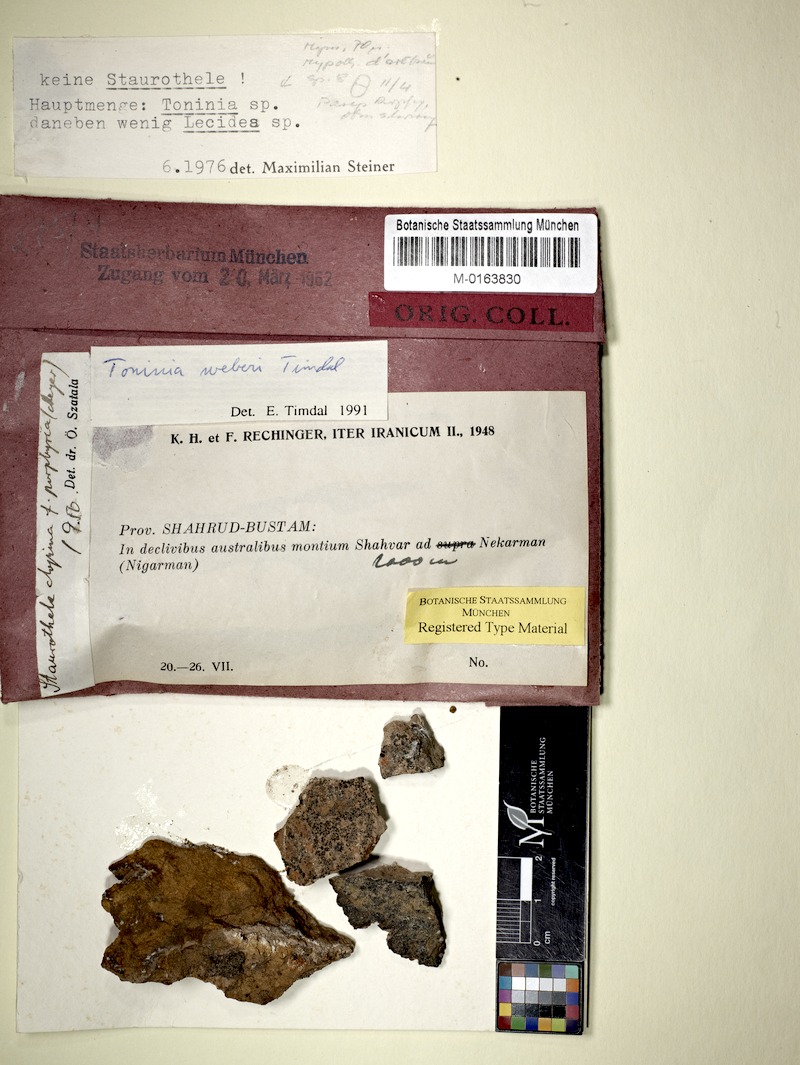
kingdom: Fungi
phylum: Ascomycota
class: Lecanoromycetes
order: Lecanorales
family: Ramalinaceae
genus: Kiliasia
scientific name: Kiliasia granulosa
